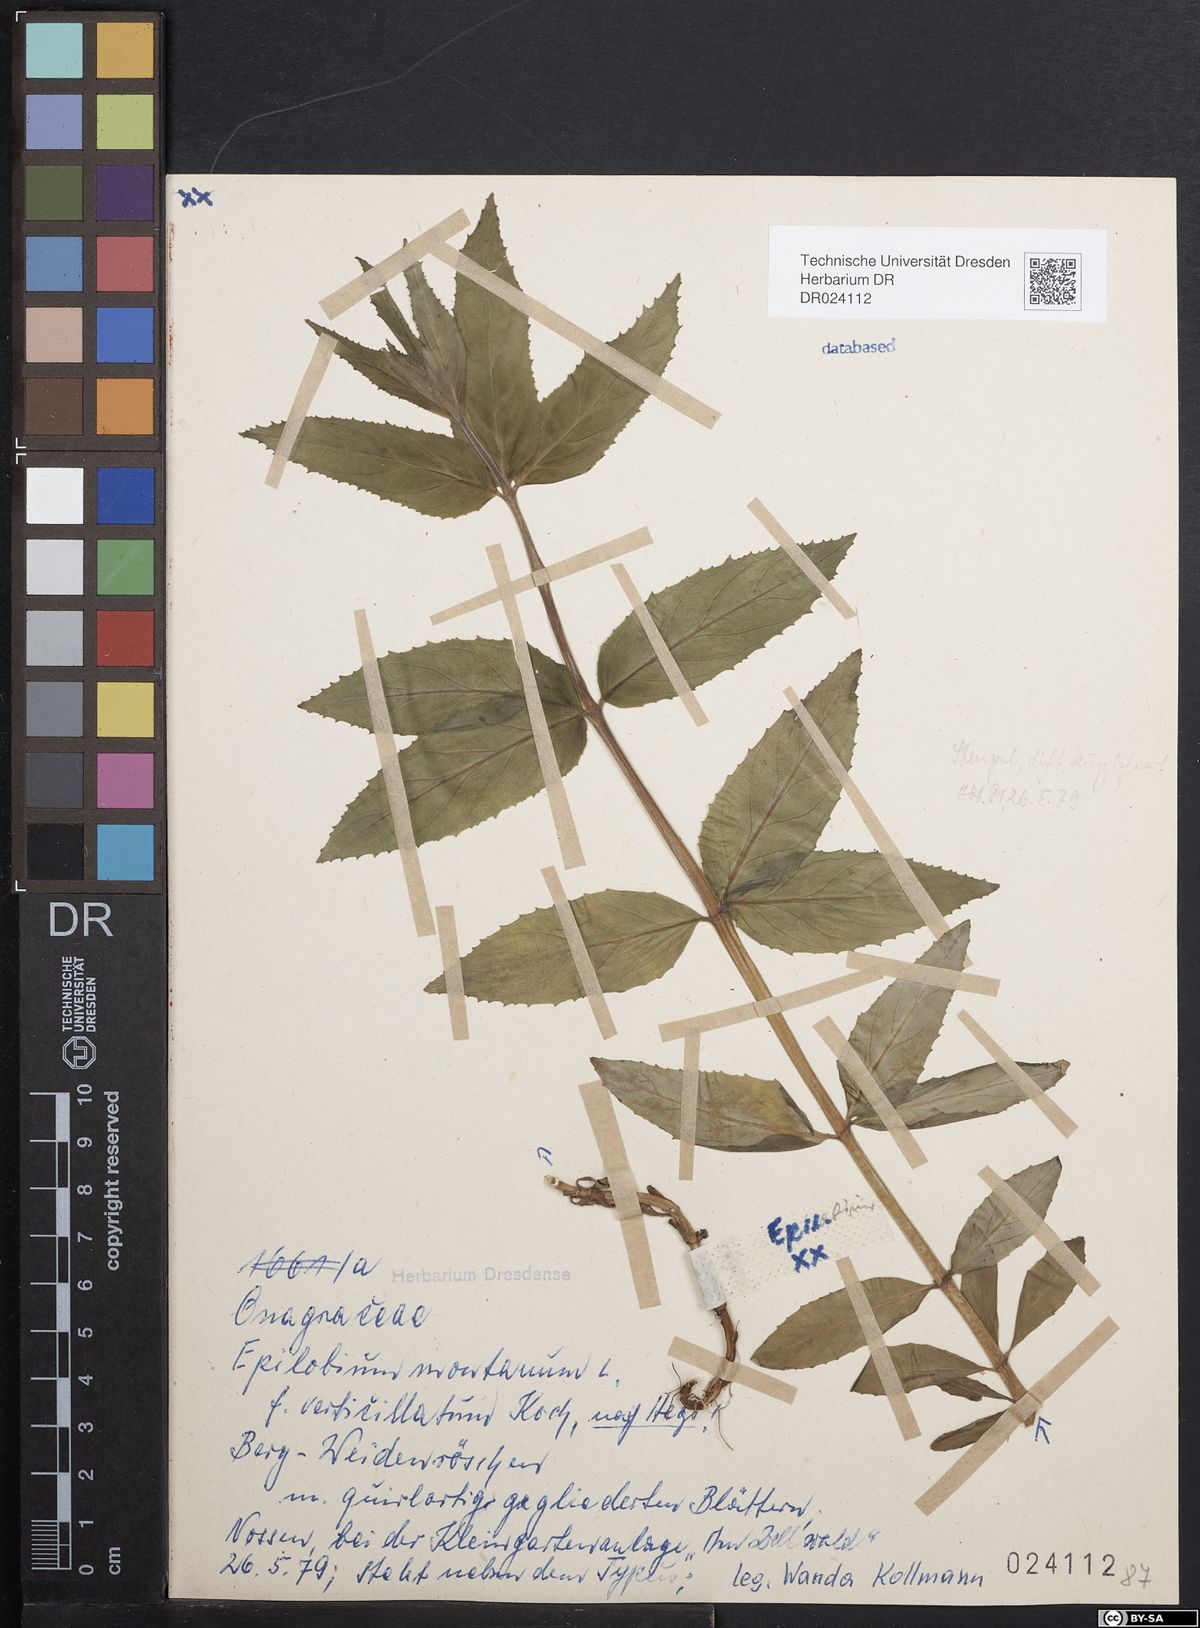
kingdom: Plantae
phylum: Tracheophyta
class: Magnoliopsida
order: Myrtales
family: Onagraceae
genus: Epilobium
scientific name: Epilobium montanum
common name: Broad-leaved willowherb
